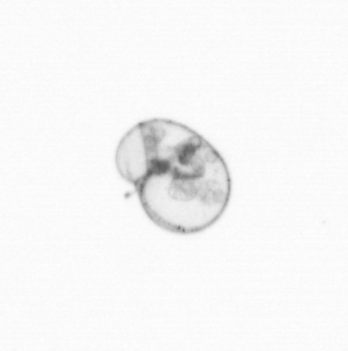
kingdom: Chromista
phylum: Myzozoa
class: Dinophyceae
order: Noctilucales
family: Noctilucaceae
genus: Noctiluca
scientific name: Noctiluca scintillans
